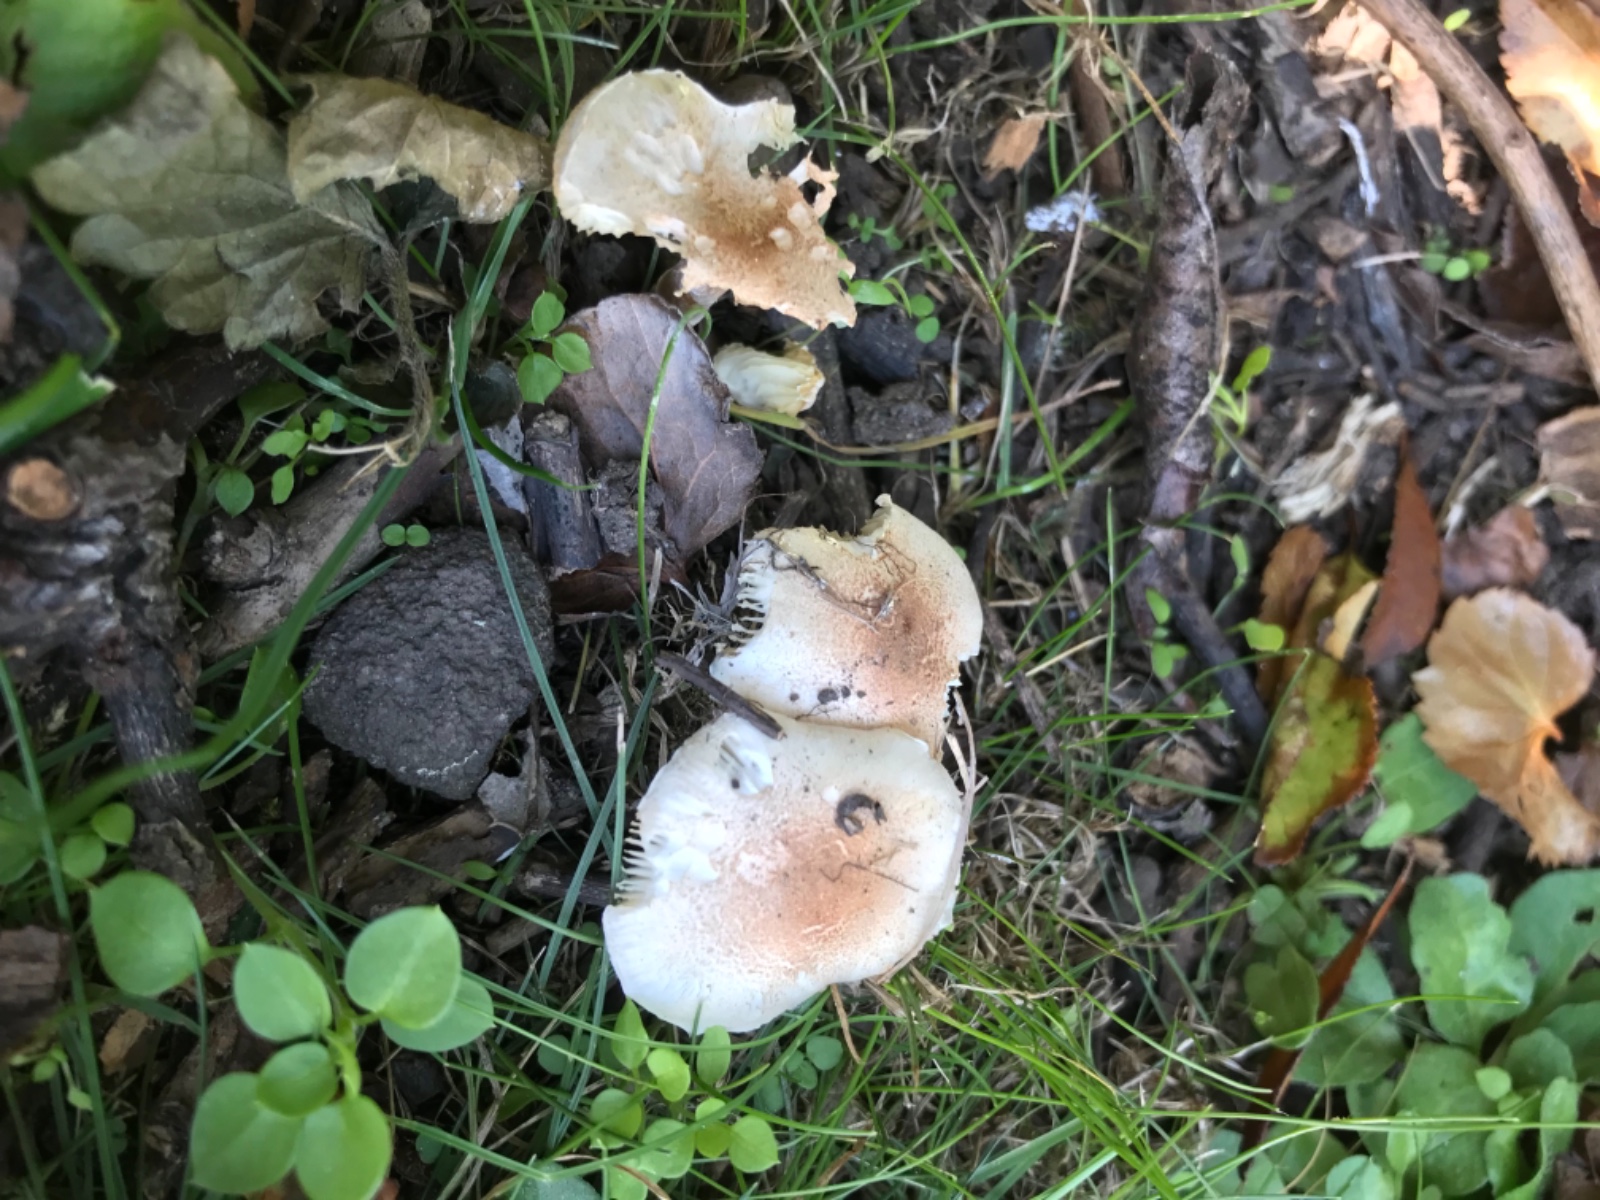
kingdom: Fungi
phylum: Basidiomycota
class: Agaricomycetes
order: Agaricales
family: Agaricaceae
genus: Lepiota
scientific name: Lepiota subincarnata
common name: kødfarvet parasolhat
